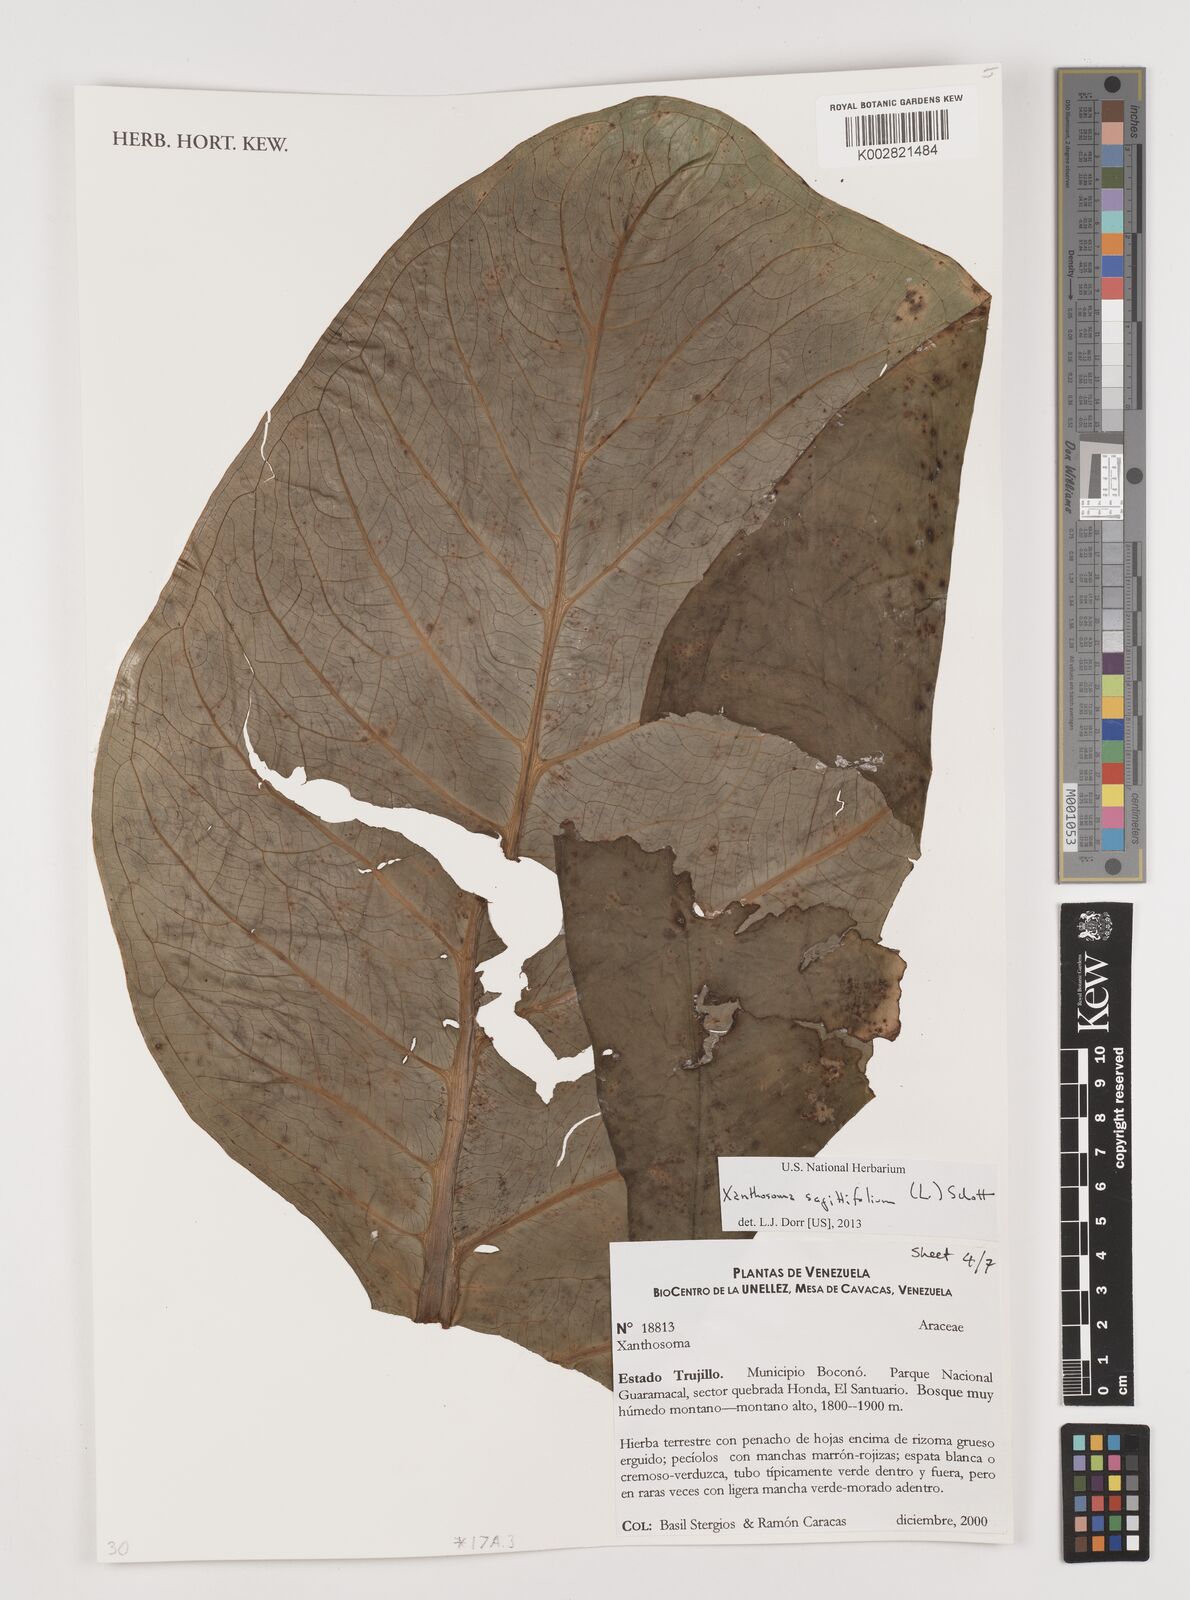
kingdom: Plantae
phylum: Tracheophyta
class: Liliopsida
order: Alismatales
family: Araceae
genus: Xanthosoma
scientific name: Xanthosoma sagittifolium
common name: Arrowleaf elephant's ear
